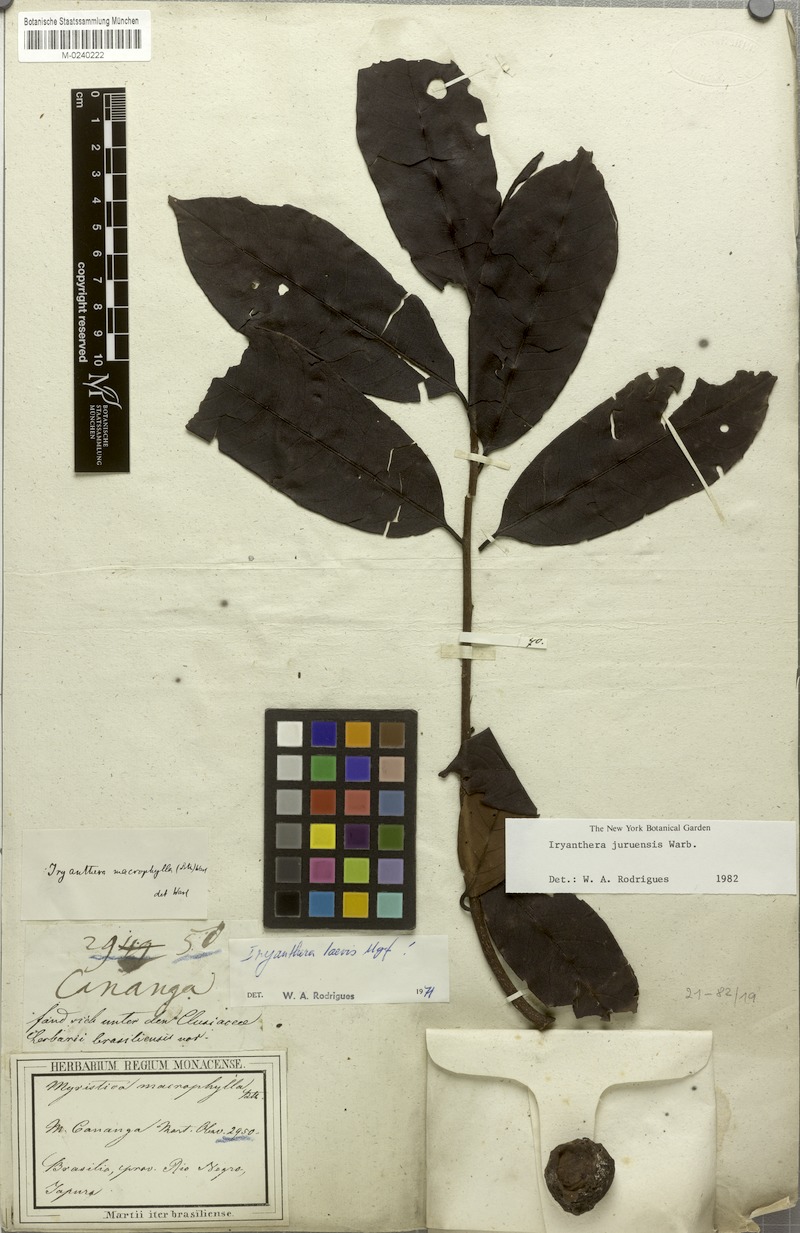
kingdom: Plantae
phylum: Tracheophyta
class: Magnoliopsida
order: Magnoliales
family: Myristicaceae
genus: Iryanthera
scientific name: Iryanthera juruensis
